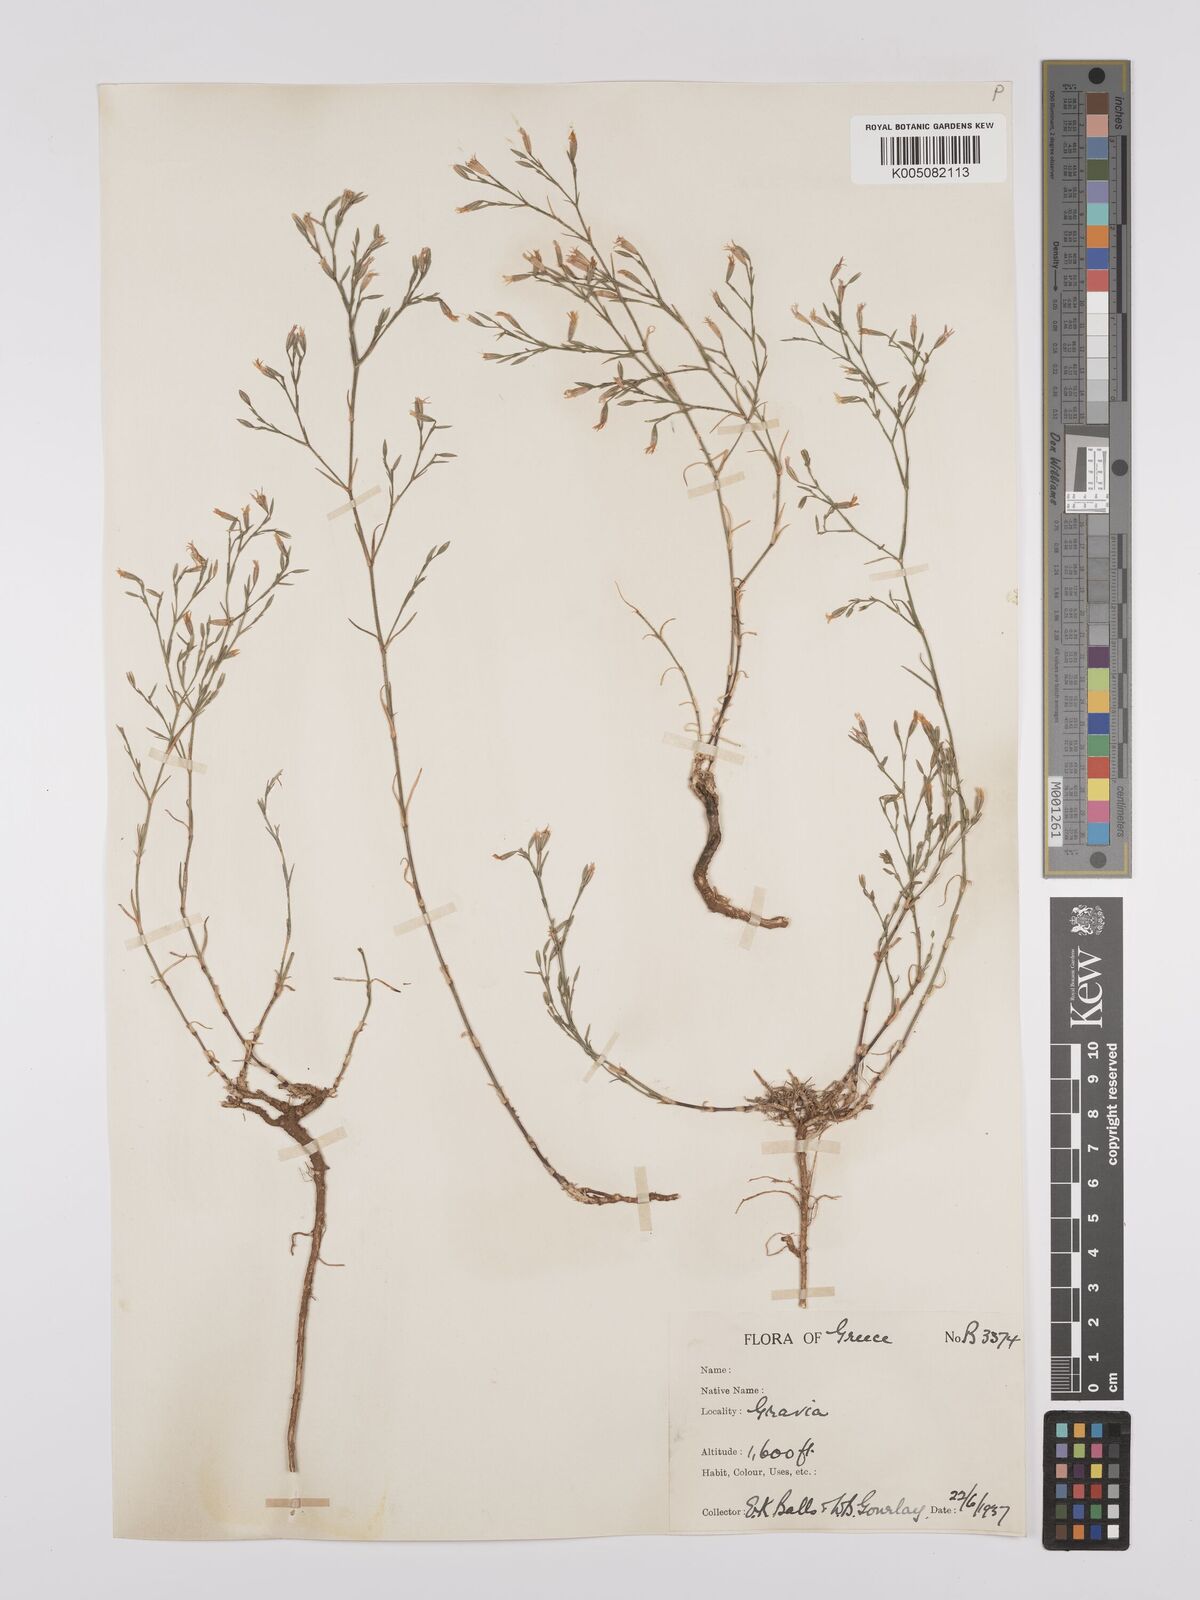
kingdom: Plantae
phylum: Tracheophyta
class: Magnoliopsida
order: Caryophyllales
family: Caryophyllaceae
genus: Dianthus
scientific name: Dianthus illyricus
